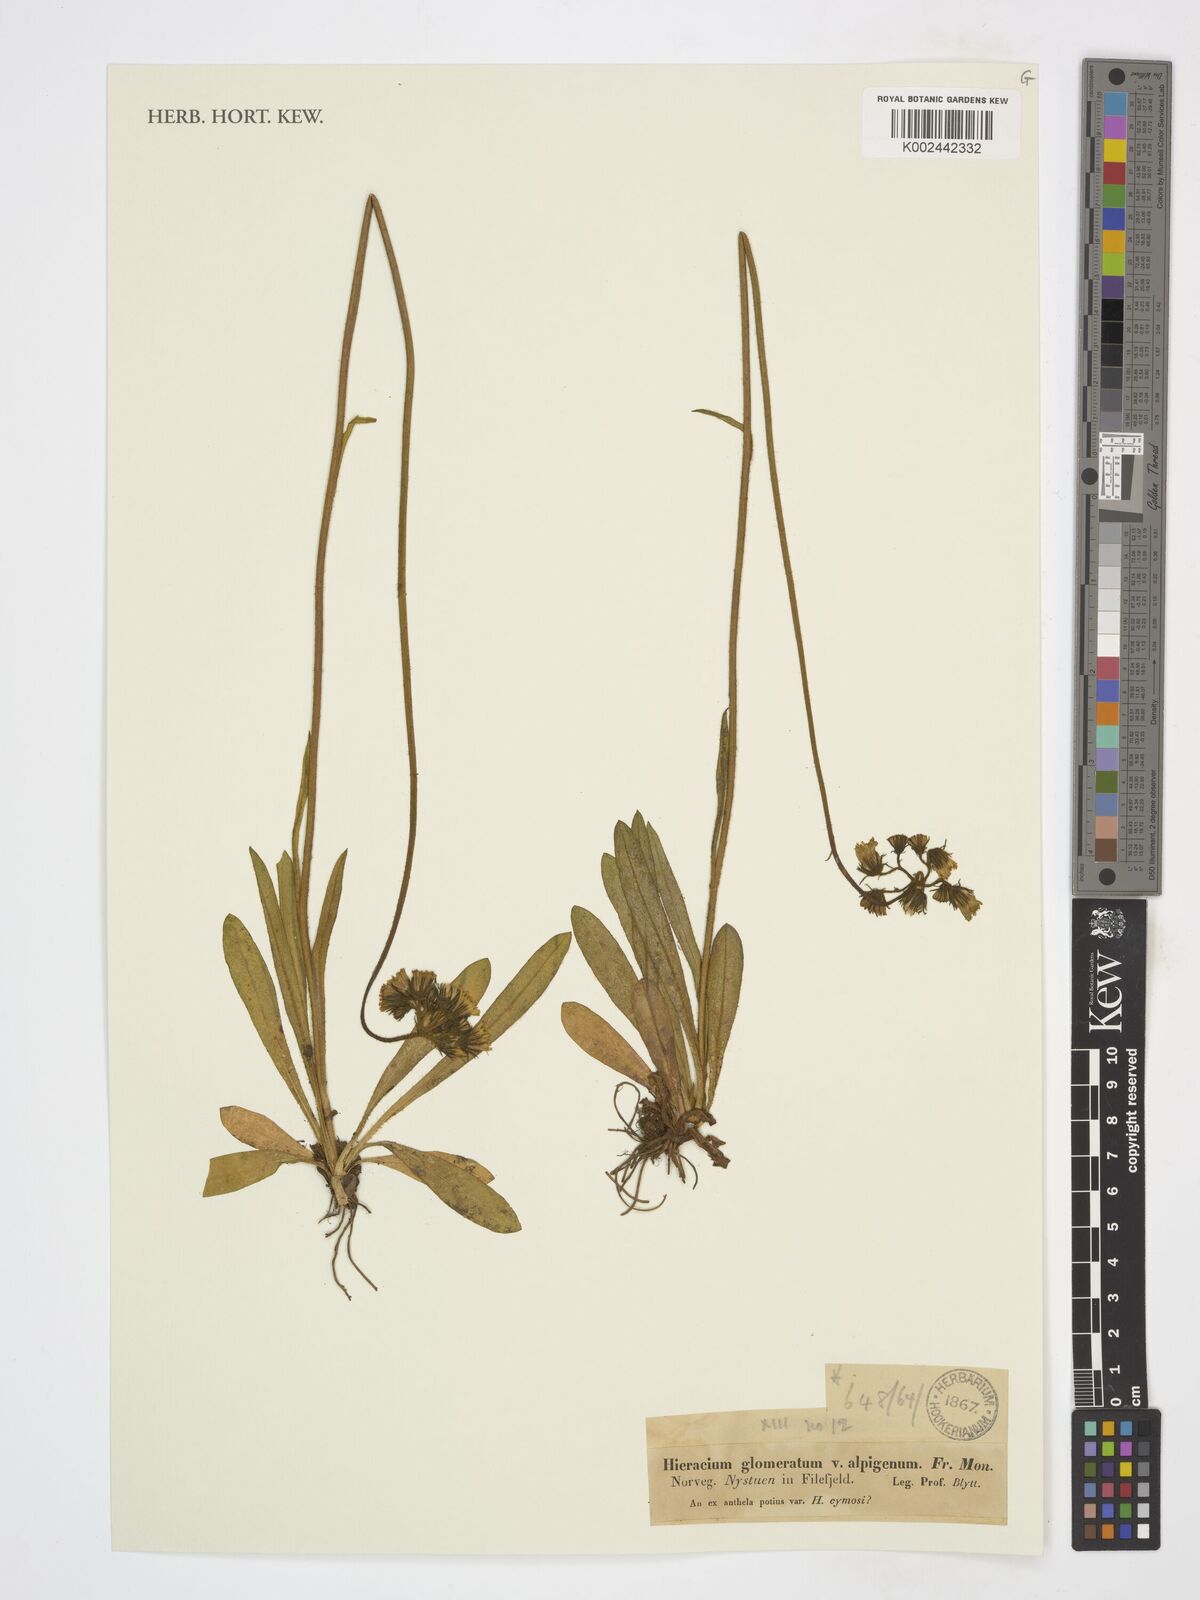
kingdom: Plantae
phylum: Tracheophyta
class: Magnoliopsida
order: Asterales
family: Asteraceae
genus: Pilosella
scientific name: Pilosella glomerata
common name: Queen devil hawkweed
